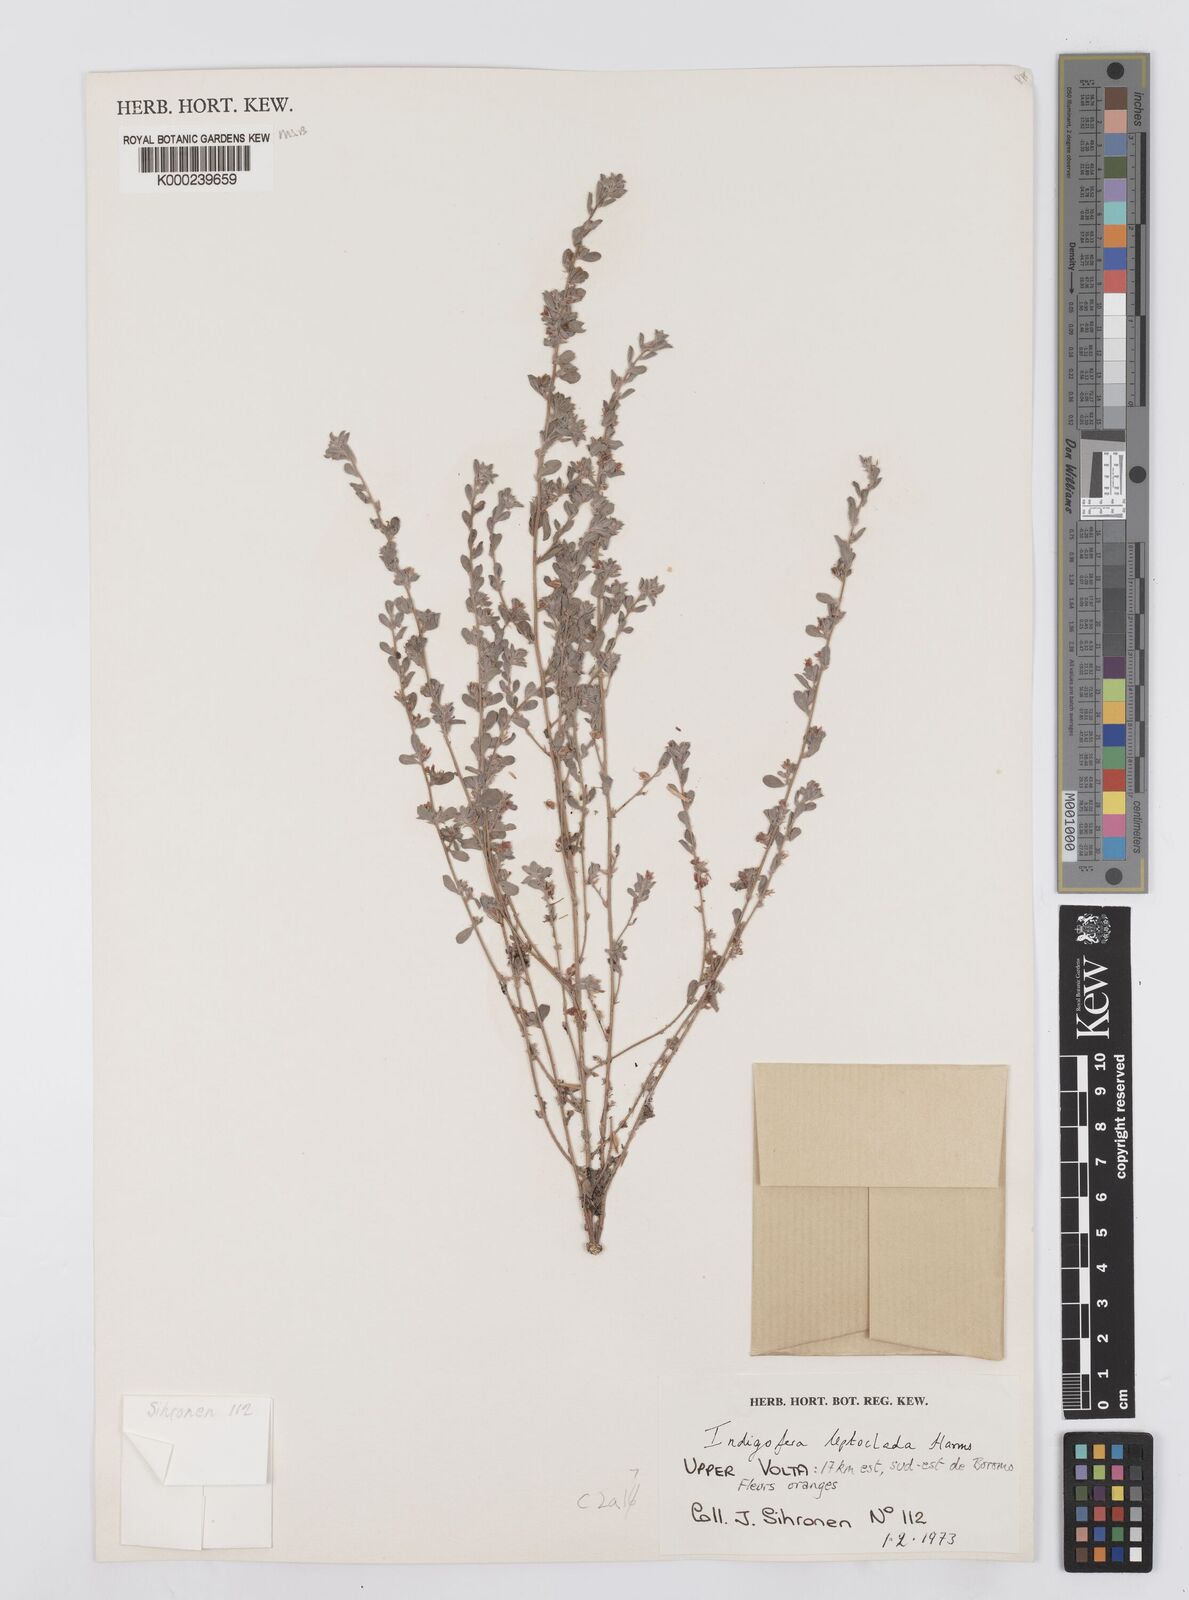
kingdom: Plantae
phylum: Tracheophyta
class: Magnoliopsida
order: Fabales
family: Fabaceae
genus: Indigofera
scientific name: Indigofera leptoclada
